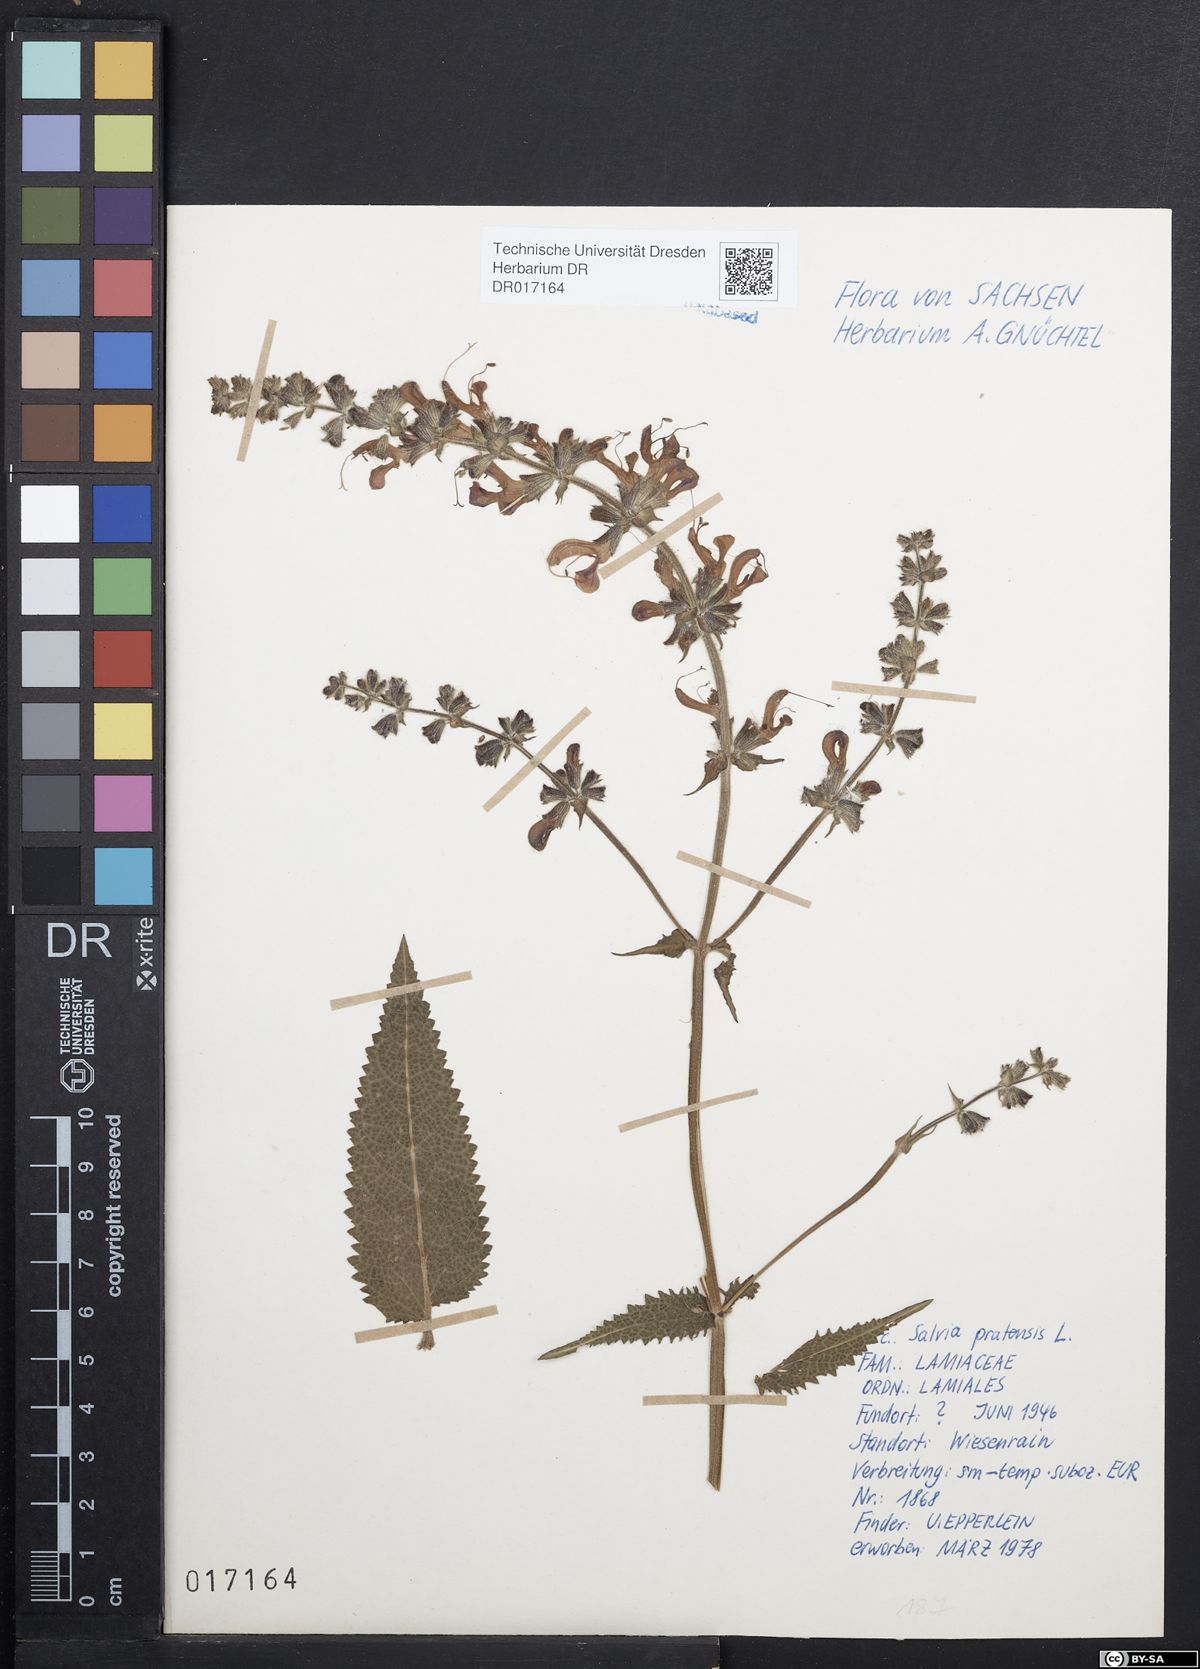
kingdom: Plantae
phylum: Tracheophyta
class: Magnoliopsida
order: Lamiales
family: Lamiaceae
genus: Salvia
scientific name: Salvia pratensis
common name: Meadow sage
